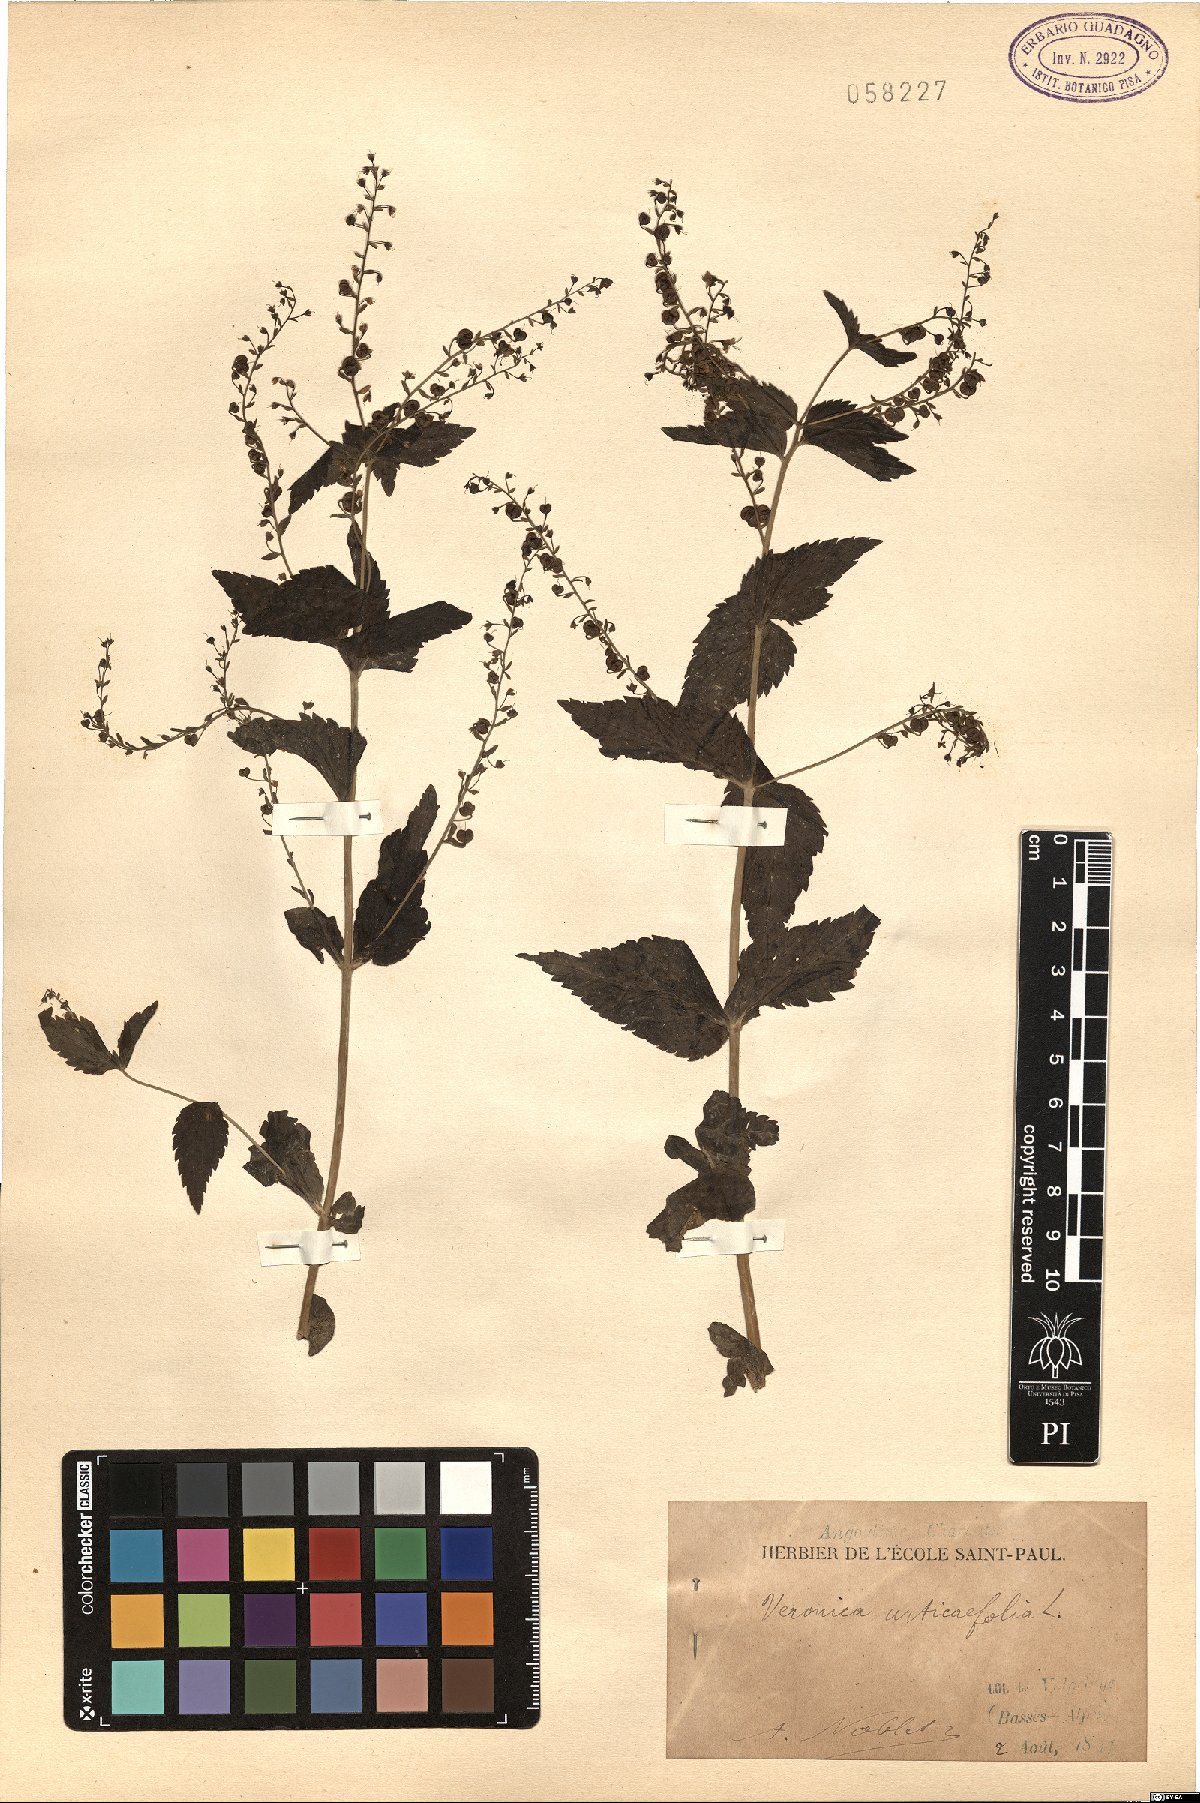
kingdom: Plantae
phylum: Tracheophyta
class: Magnoliopsida
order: Lamiales
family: Plantaginaceae
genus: Veronica
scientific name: Veronica urticifolia
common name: Nettle-leaf speedwell
